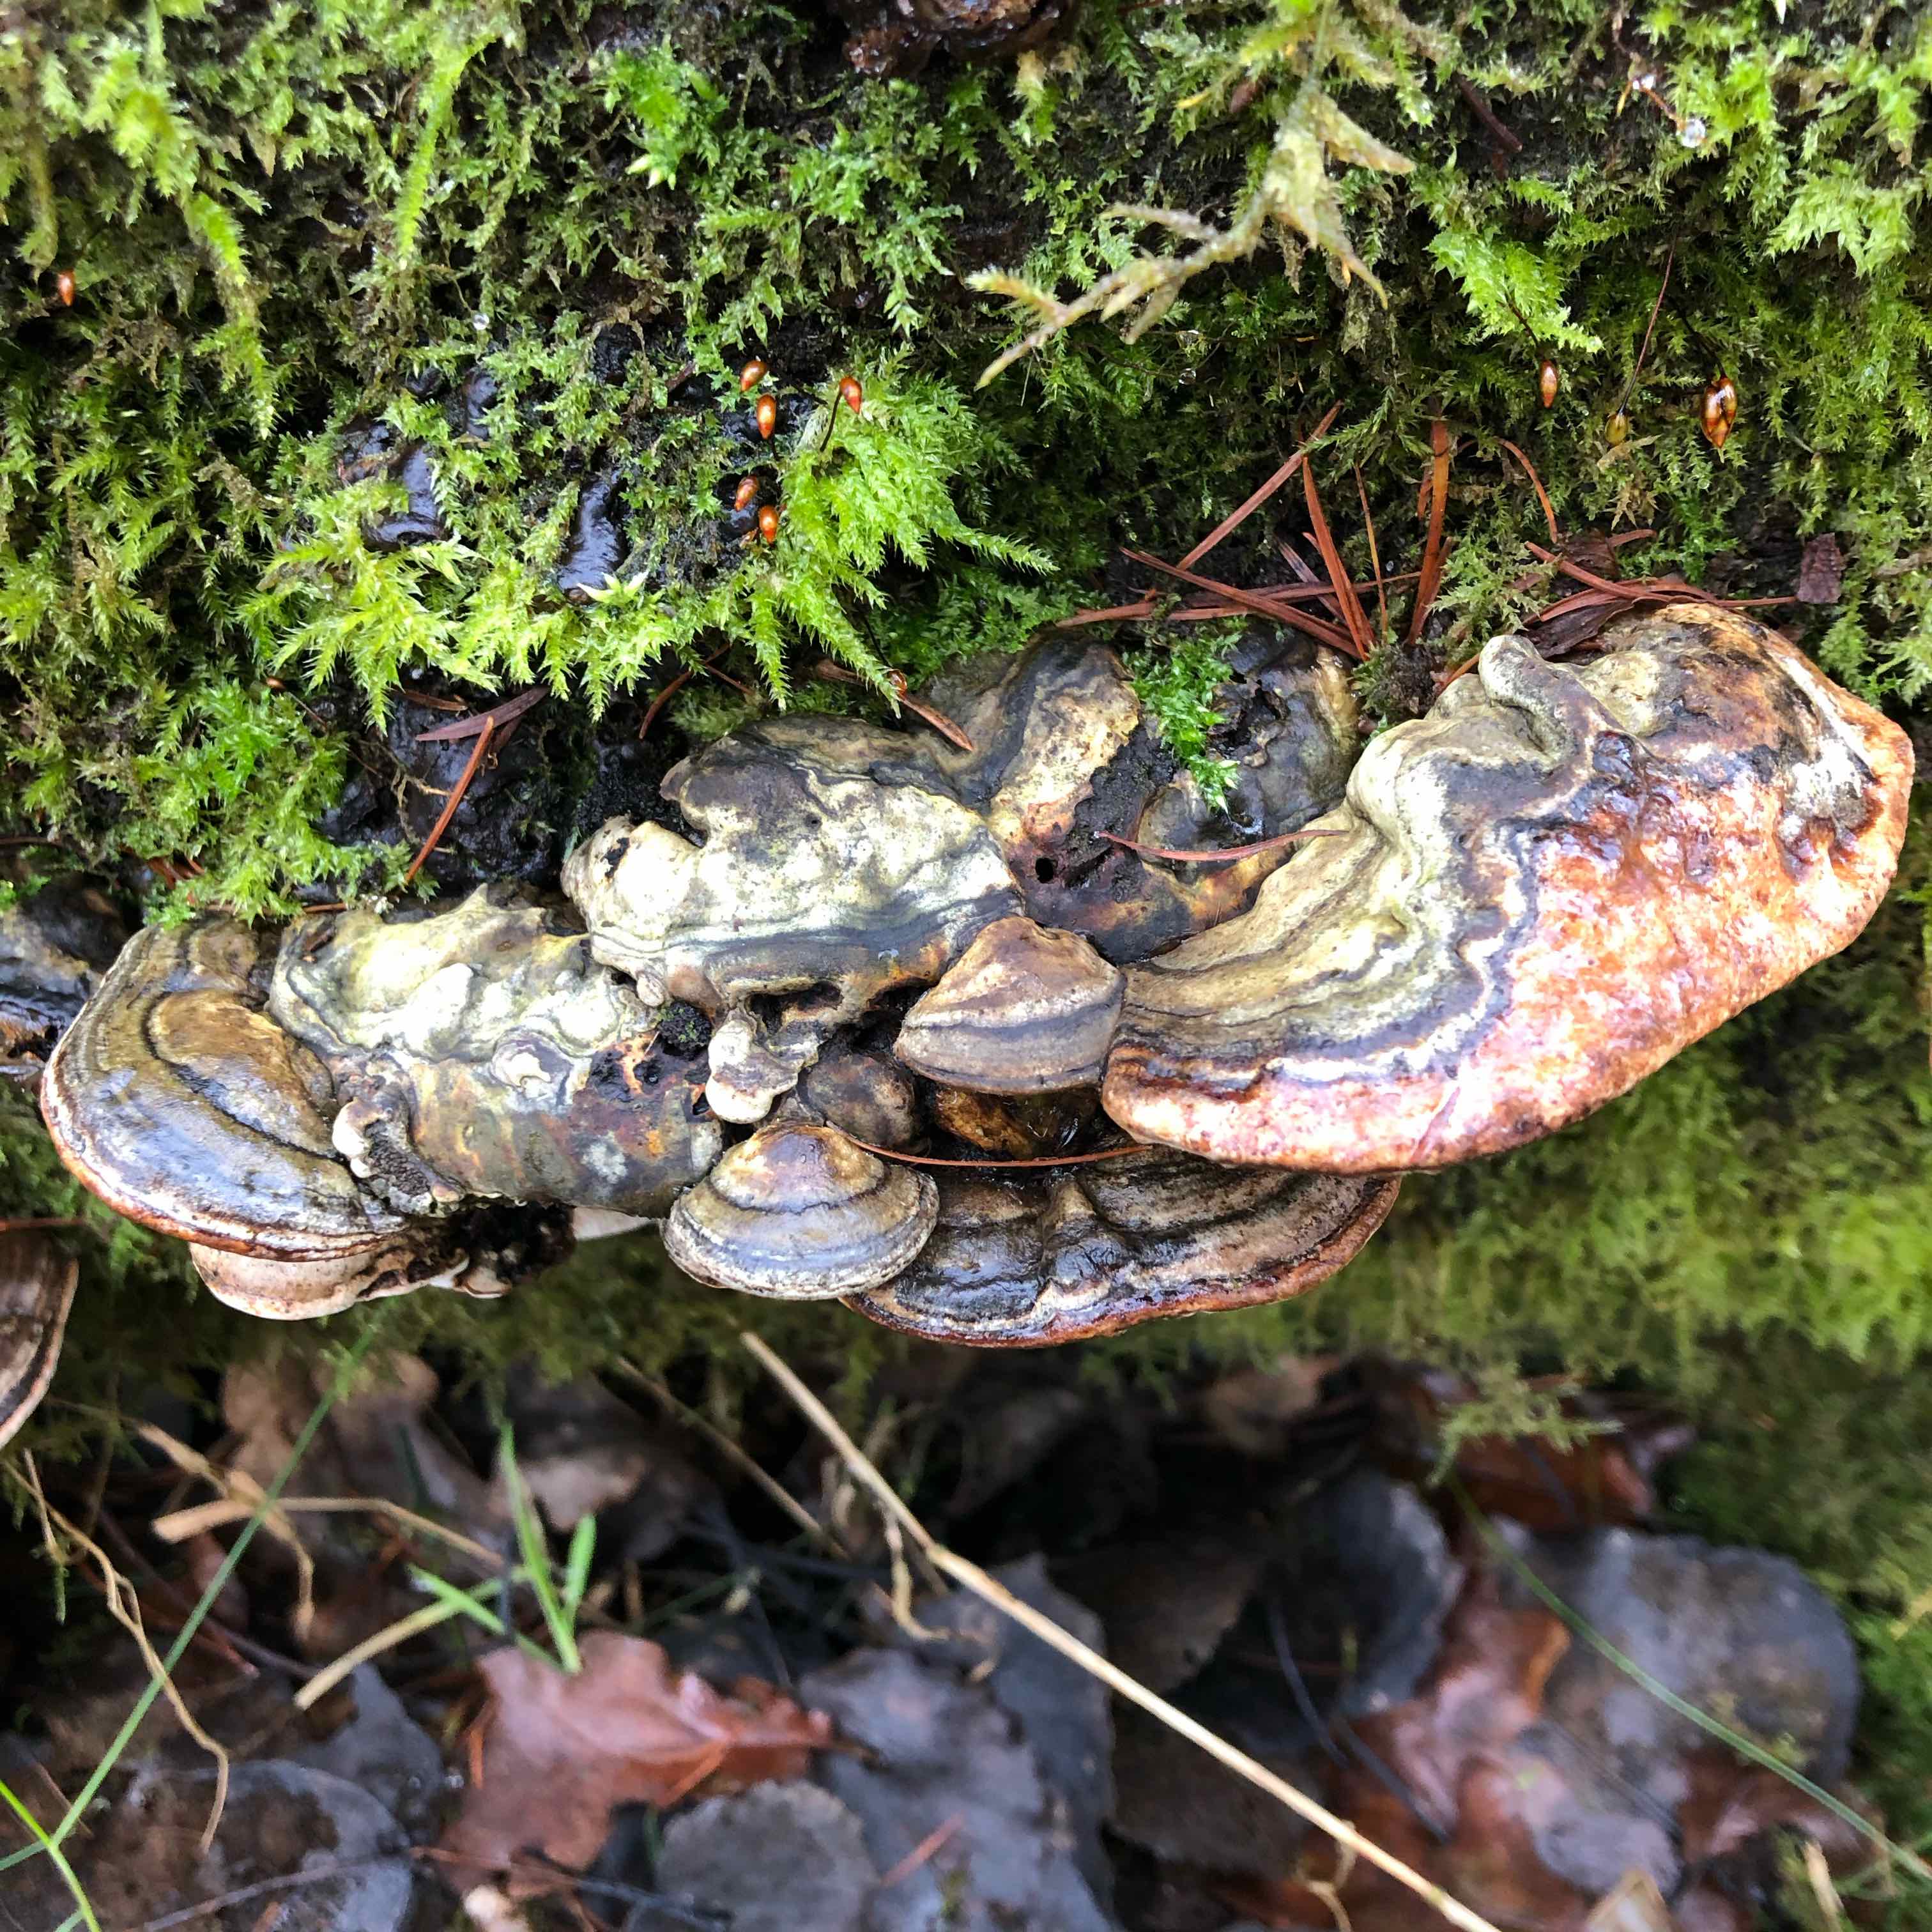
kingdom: Fungi
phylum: Basidiomycota
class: Agaricomycetes
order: Polyporales
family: Fomitopsidaceae
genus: Fomitopsis
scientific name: Fomitopsis pinicola
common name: randbæltet hovporesvamp
